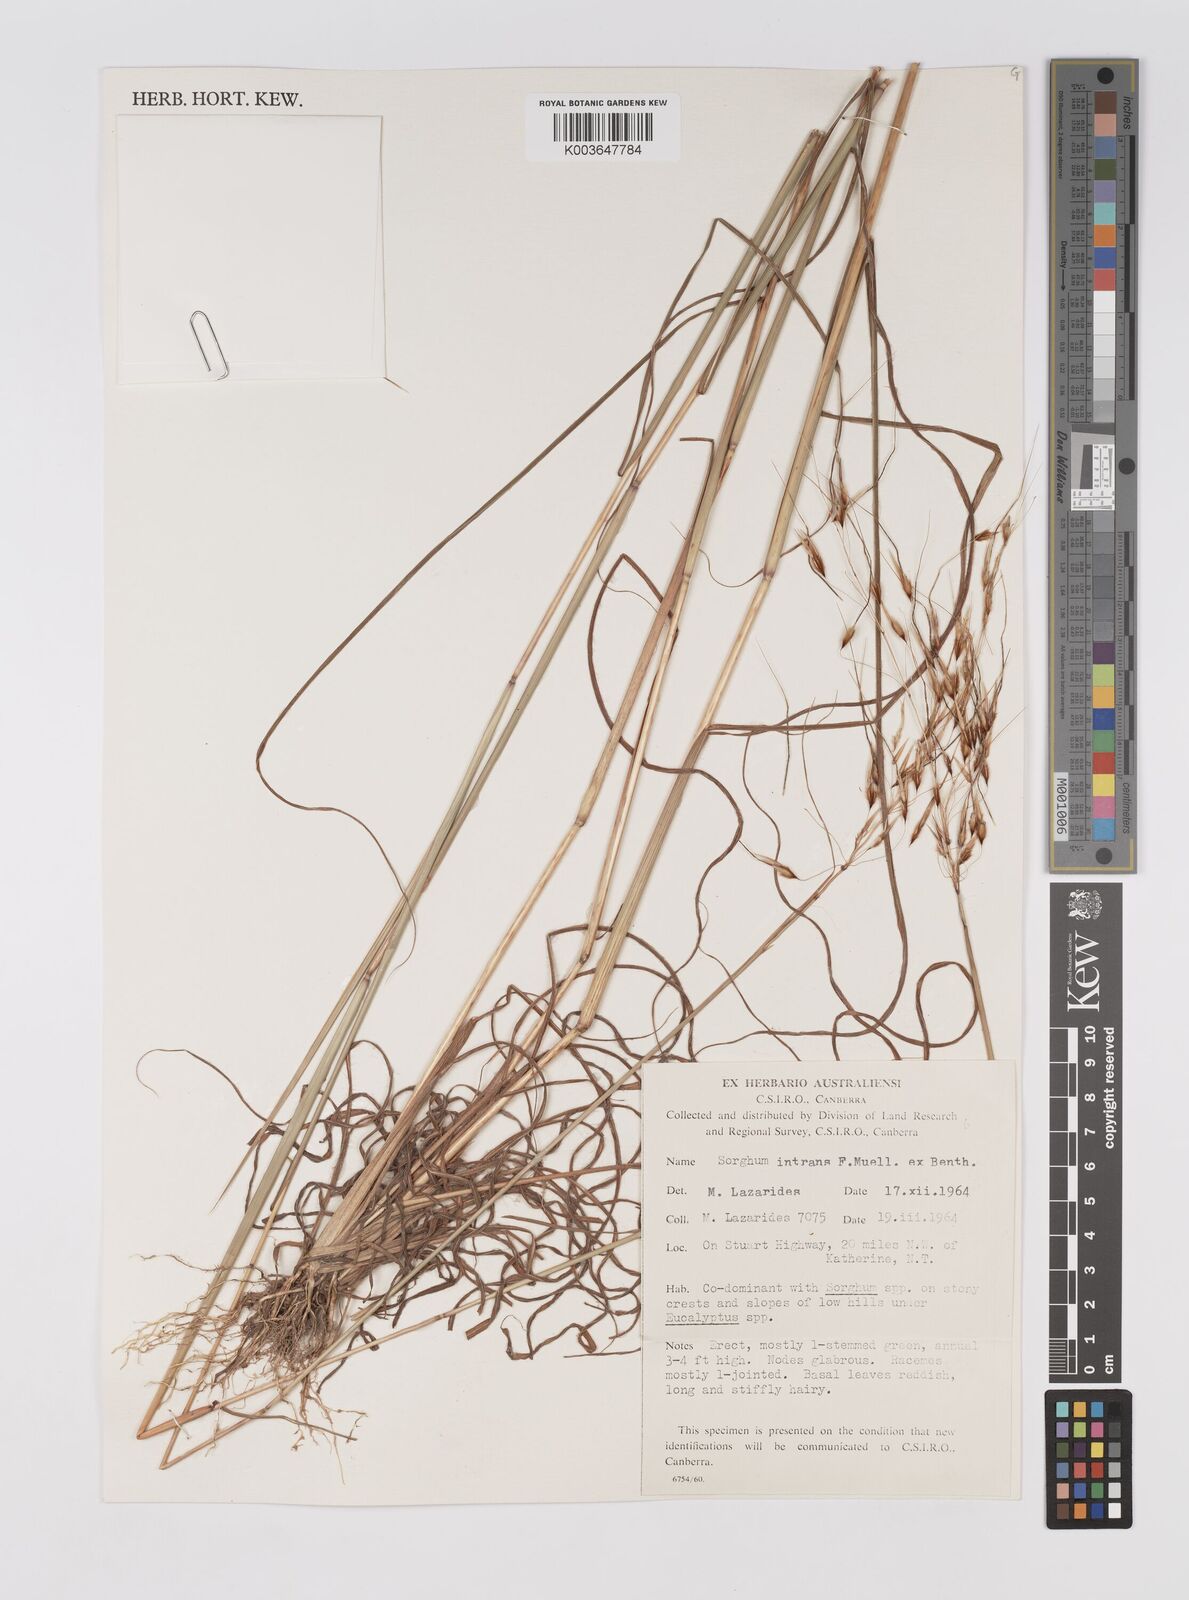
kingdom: Plantae
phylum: Tracheophyta
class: Liliopsida
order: Poales
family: Poaceae
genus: Sarga
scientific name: Sarga intrans
